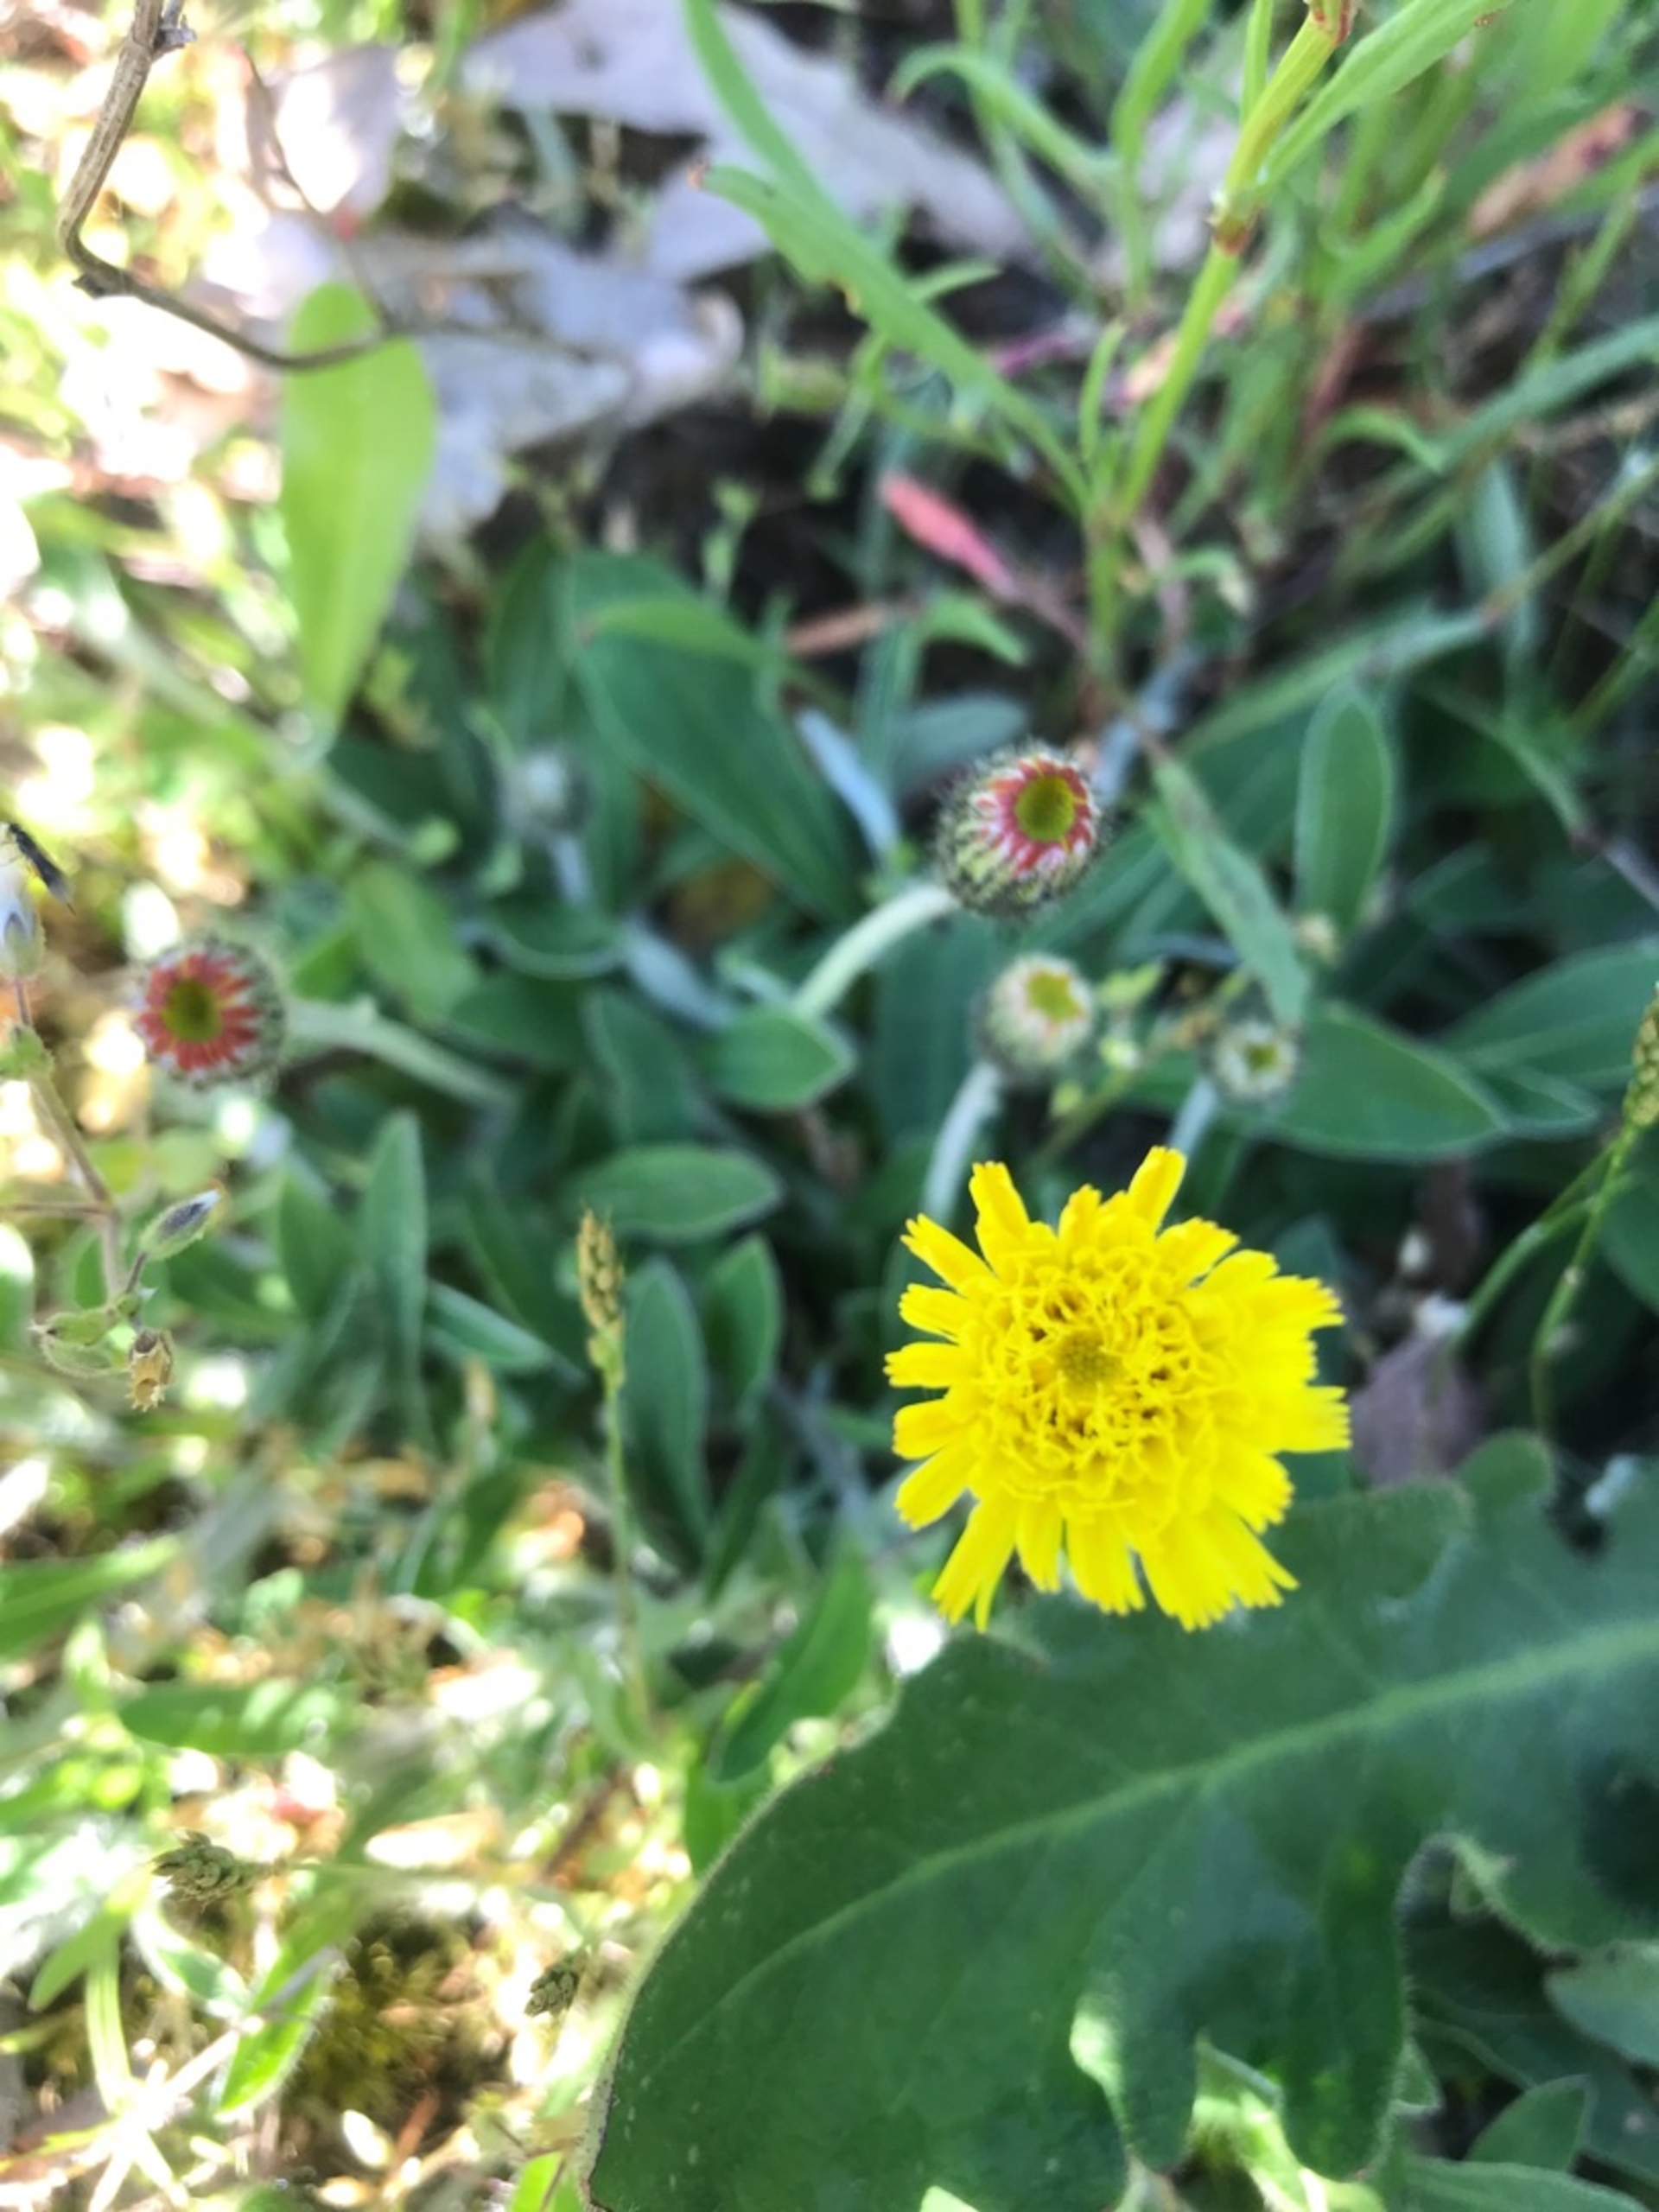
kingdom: Plantae
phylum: Tracheophyta
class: Magnoliopsida
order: Asterales
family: Asteraceae
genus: Pilosella
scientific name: Pilosella officinarum
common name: Håret høgeurt
